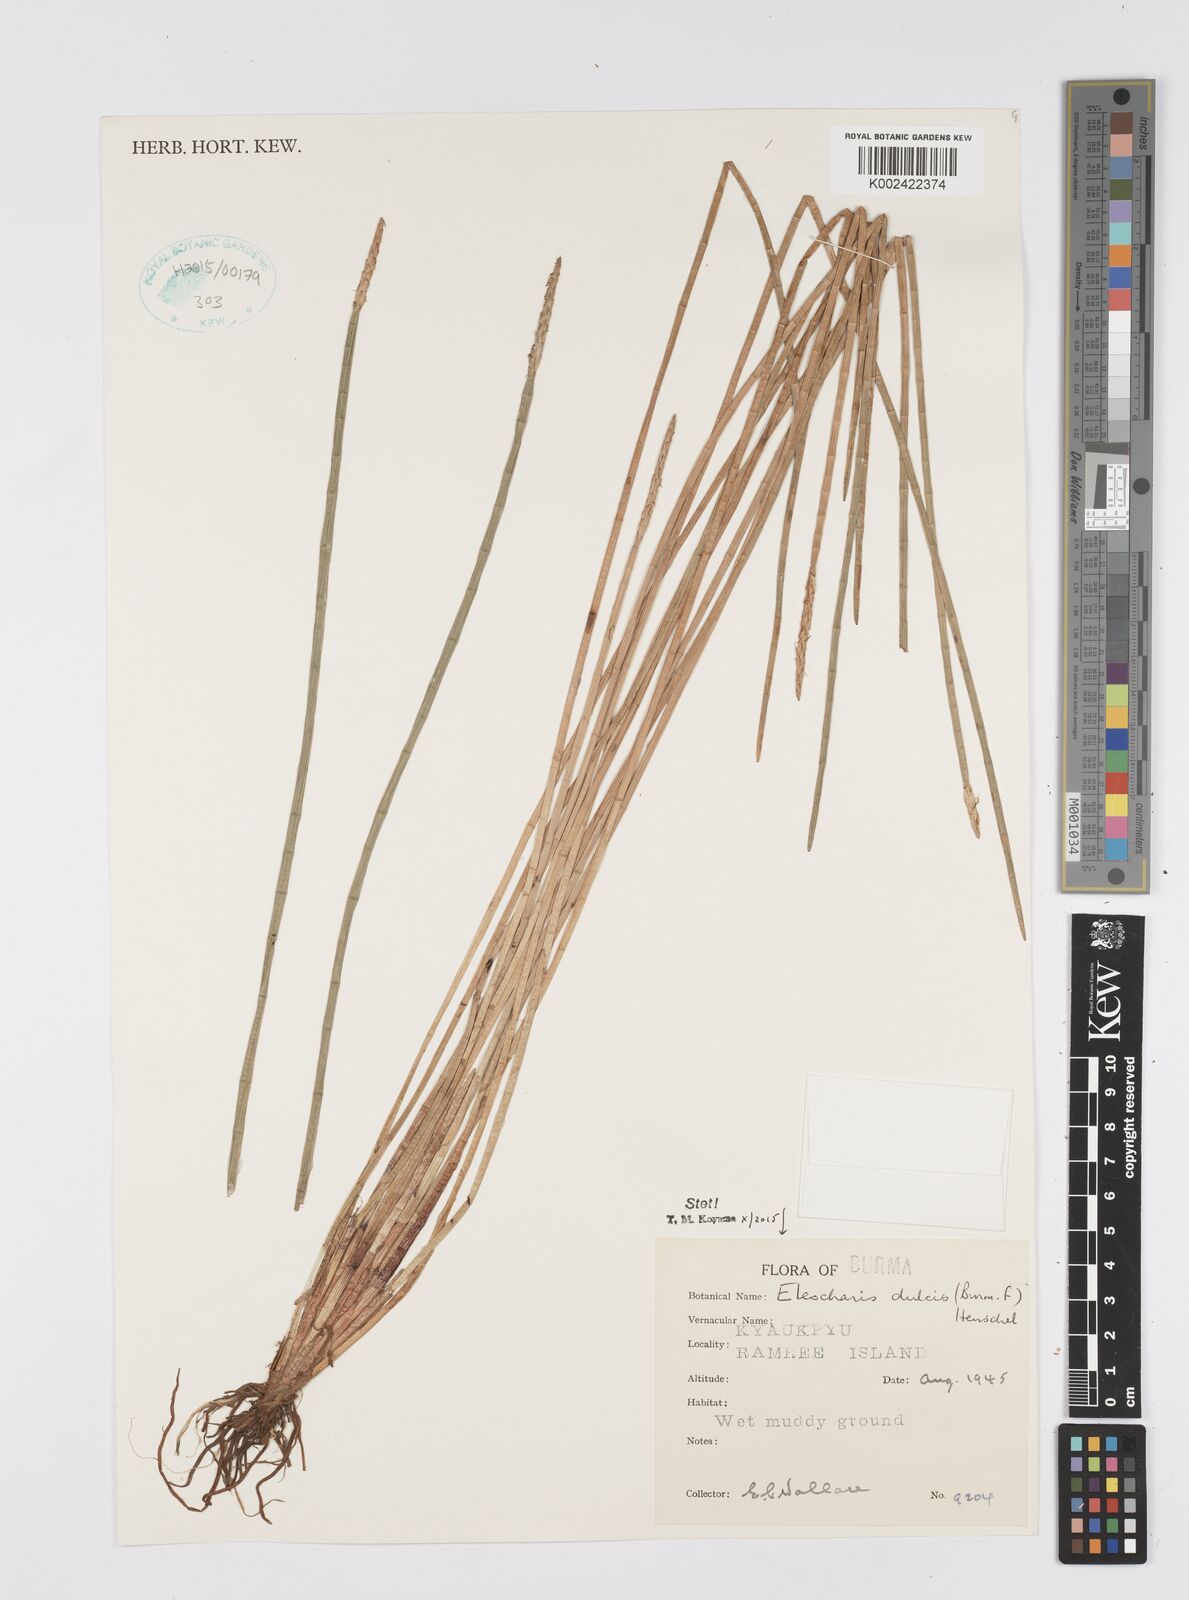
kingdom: Plantae
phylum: Tracheophyta
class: Liliopsida
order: Poales
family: Cyperaceae
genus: Eleocharis
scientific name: Eleocharis dulcis
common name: Chinese water chestnut
